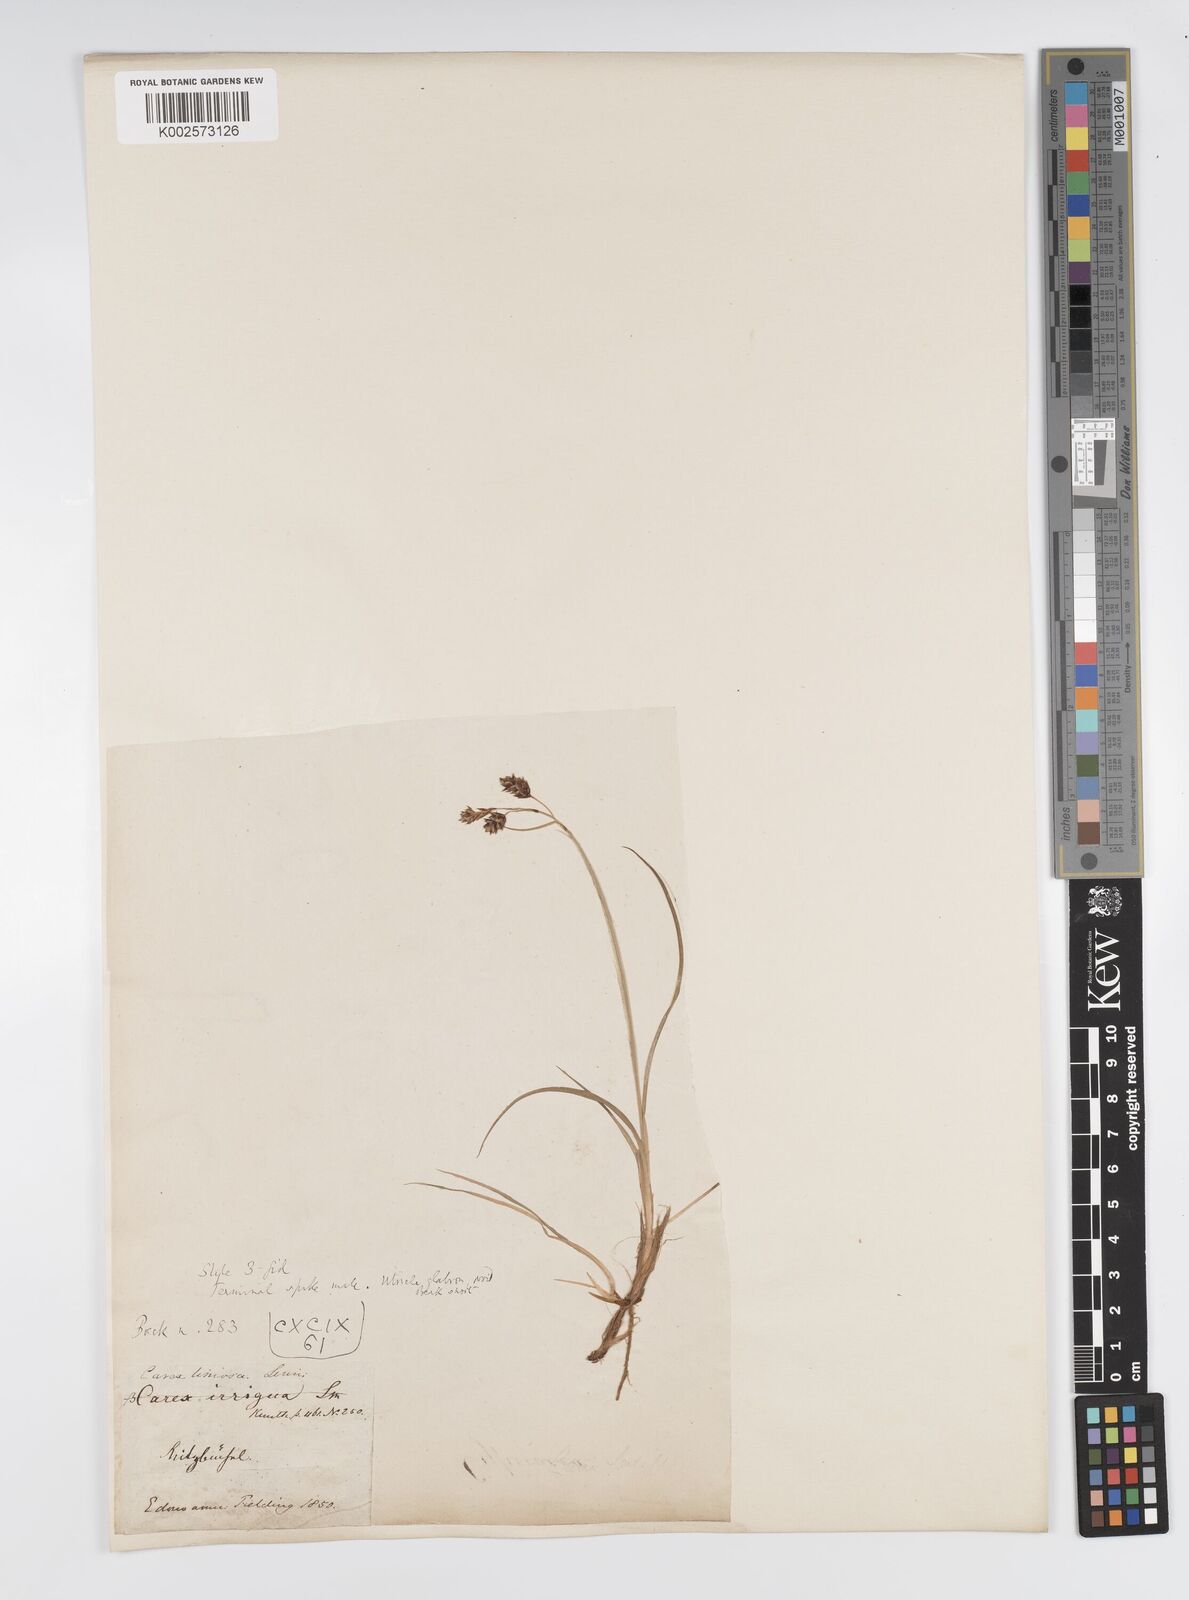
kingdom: Plantae
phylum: Tracheophyta
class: Liliopsida
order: Poales
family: Cyperaceae
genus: Carex
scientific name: Carex limosa
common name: Bog sedge
